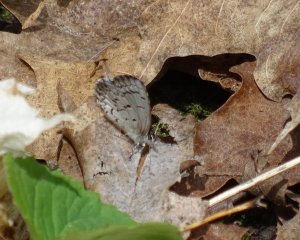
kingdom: Animalia
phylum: Arthropoda
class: Insecta
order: Lepidoptera
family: Lycaenidae
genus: Celastrina
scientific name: Celastrina lucia
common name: Northern Spring Azure
